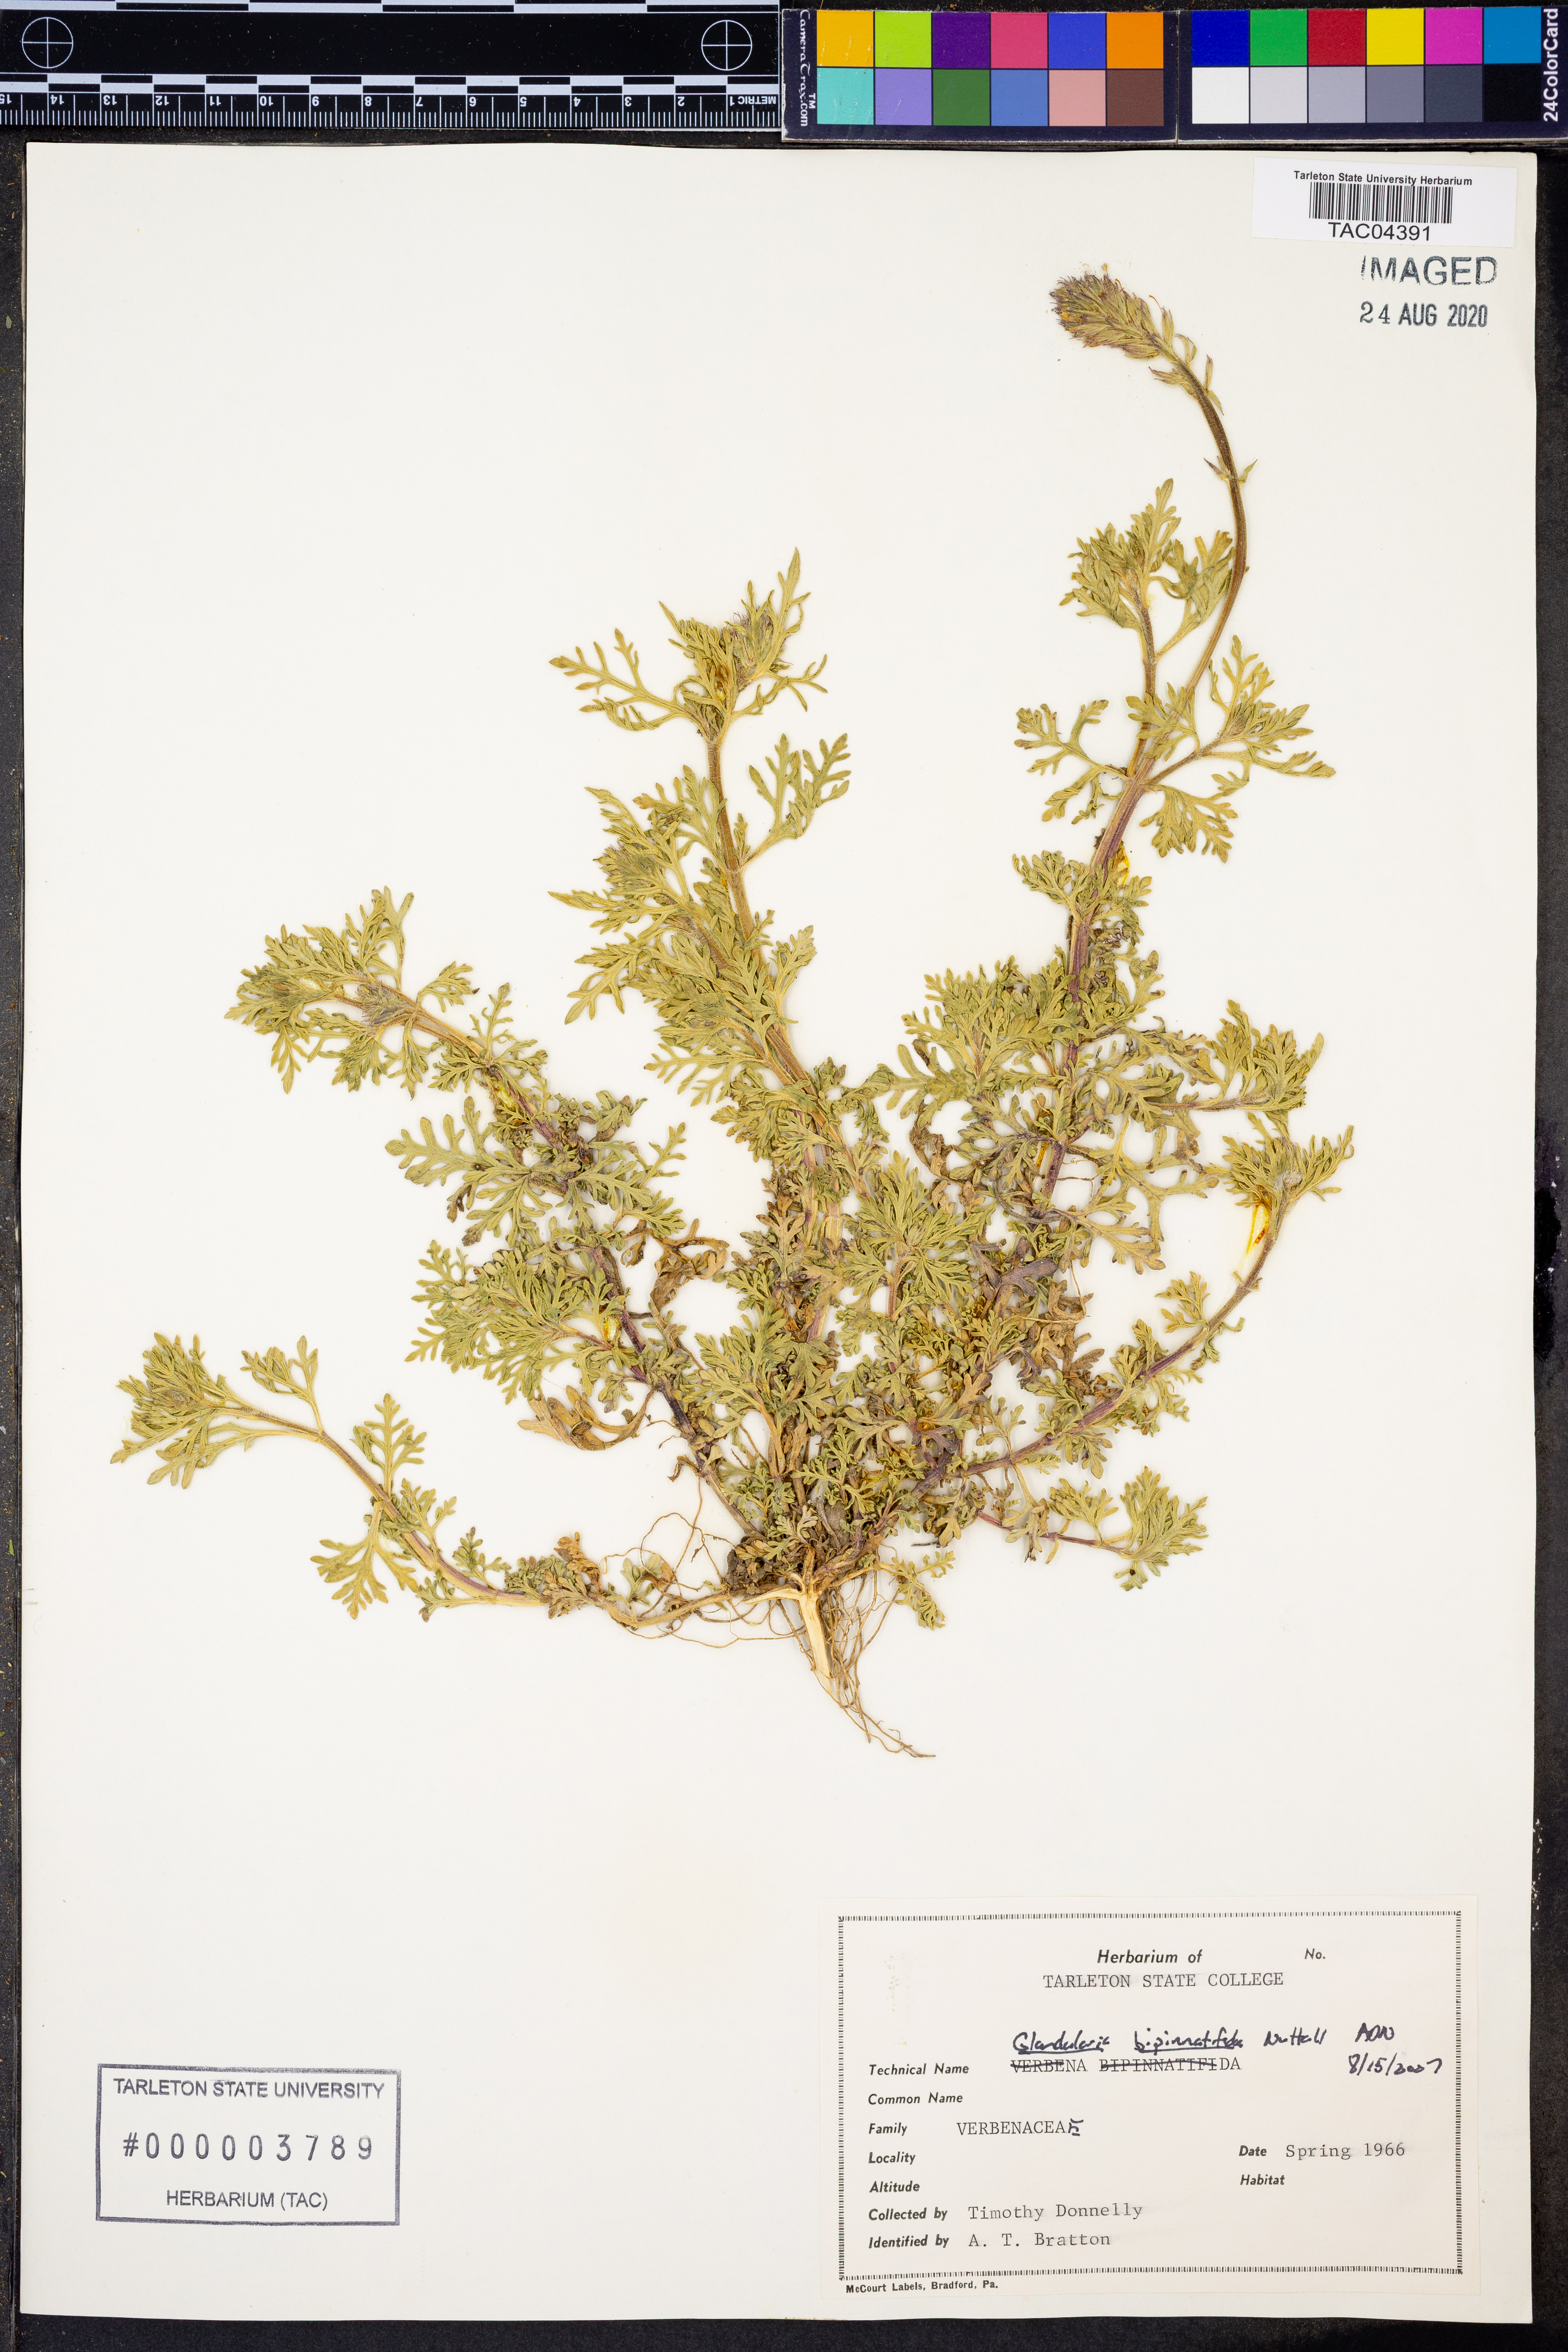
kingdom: Plantae
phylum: Tracheophyta
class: Magnoliopsida
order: Lamiales
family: Verbenaceae
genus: Verbena
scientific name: Verbena bipinnatifida
